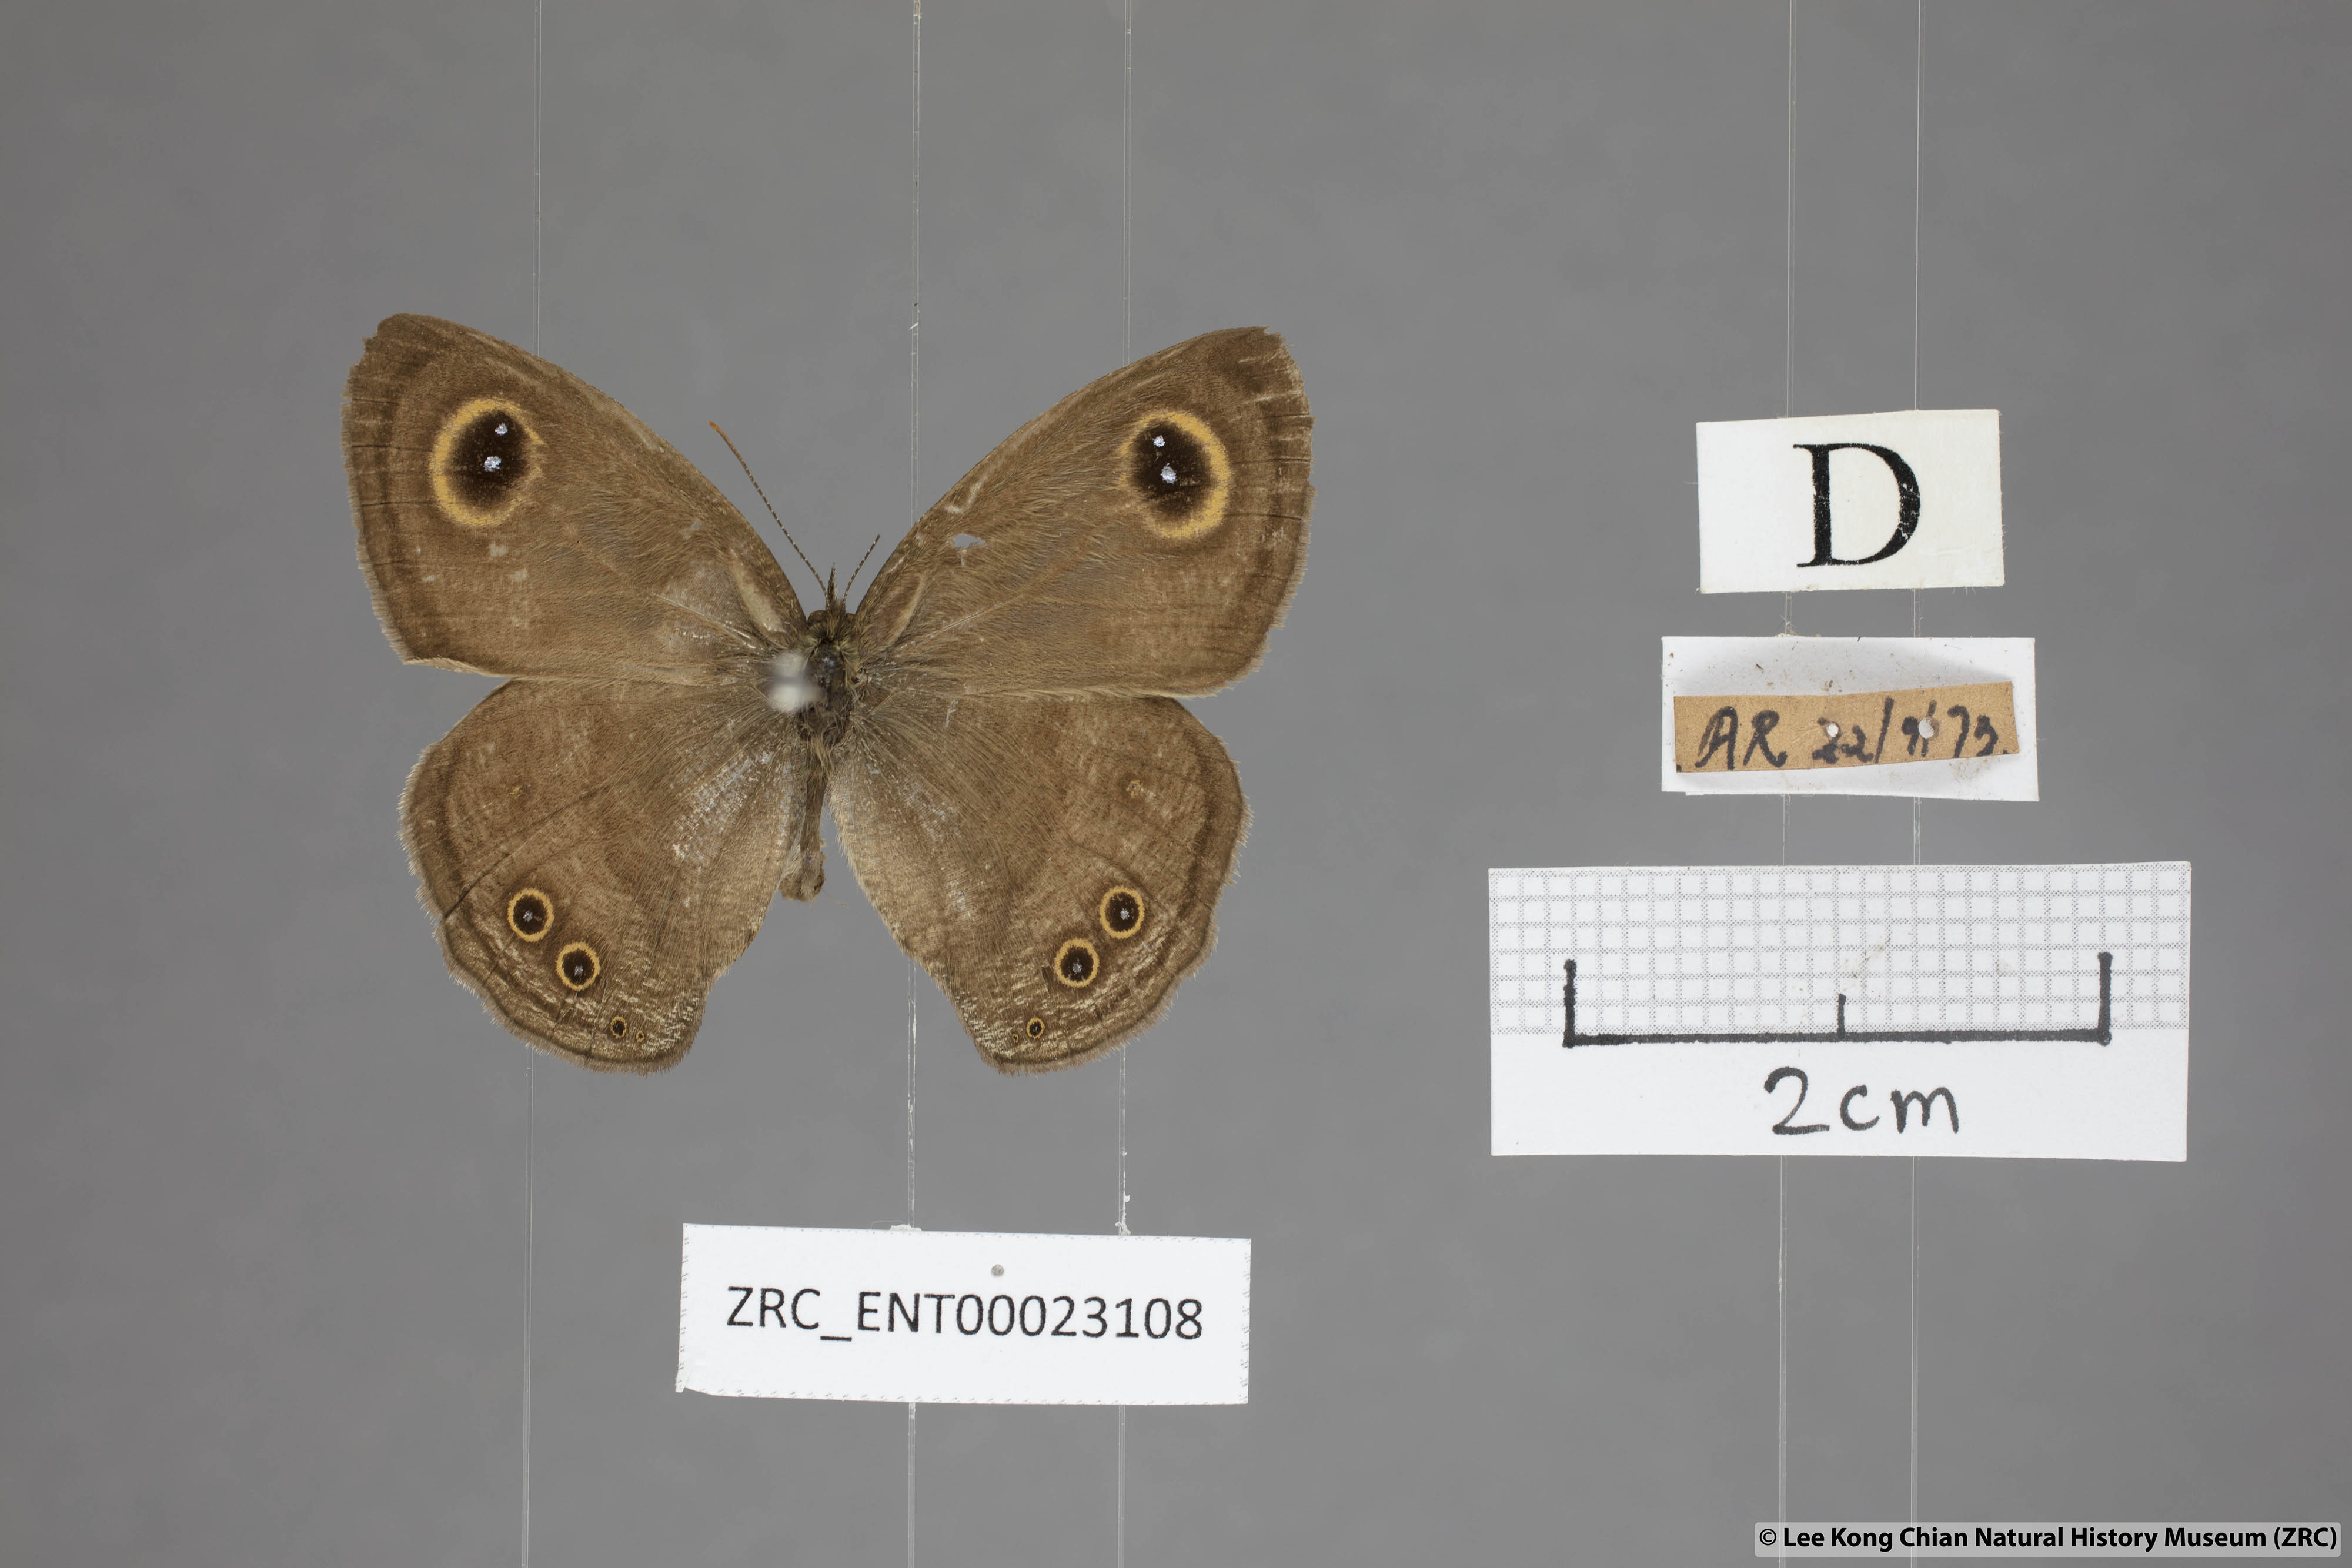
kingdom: Animalia
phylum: Arthropoda
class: Insecta
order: Lepidoptera
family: Nymphalidae
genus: Ypthima
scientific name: Ypthima baldus
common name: Common five-ring
